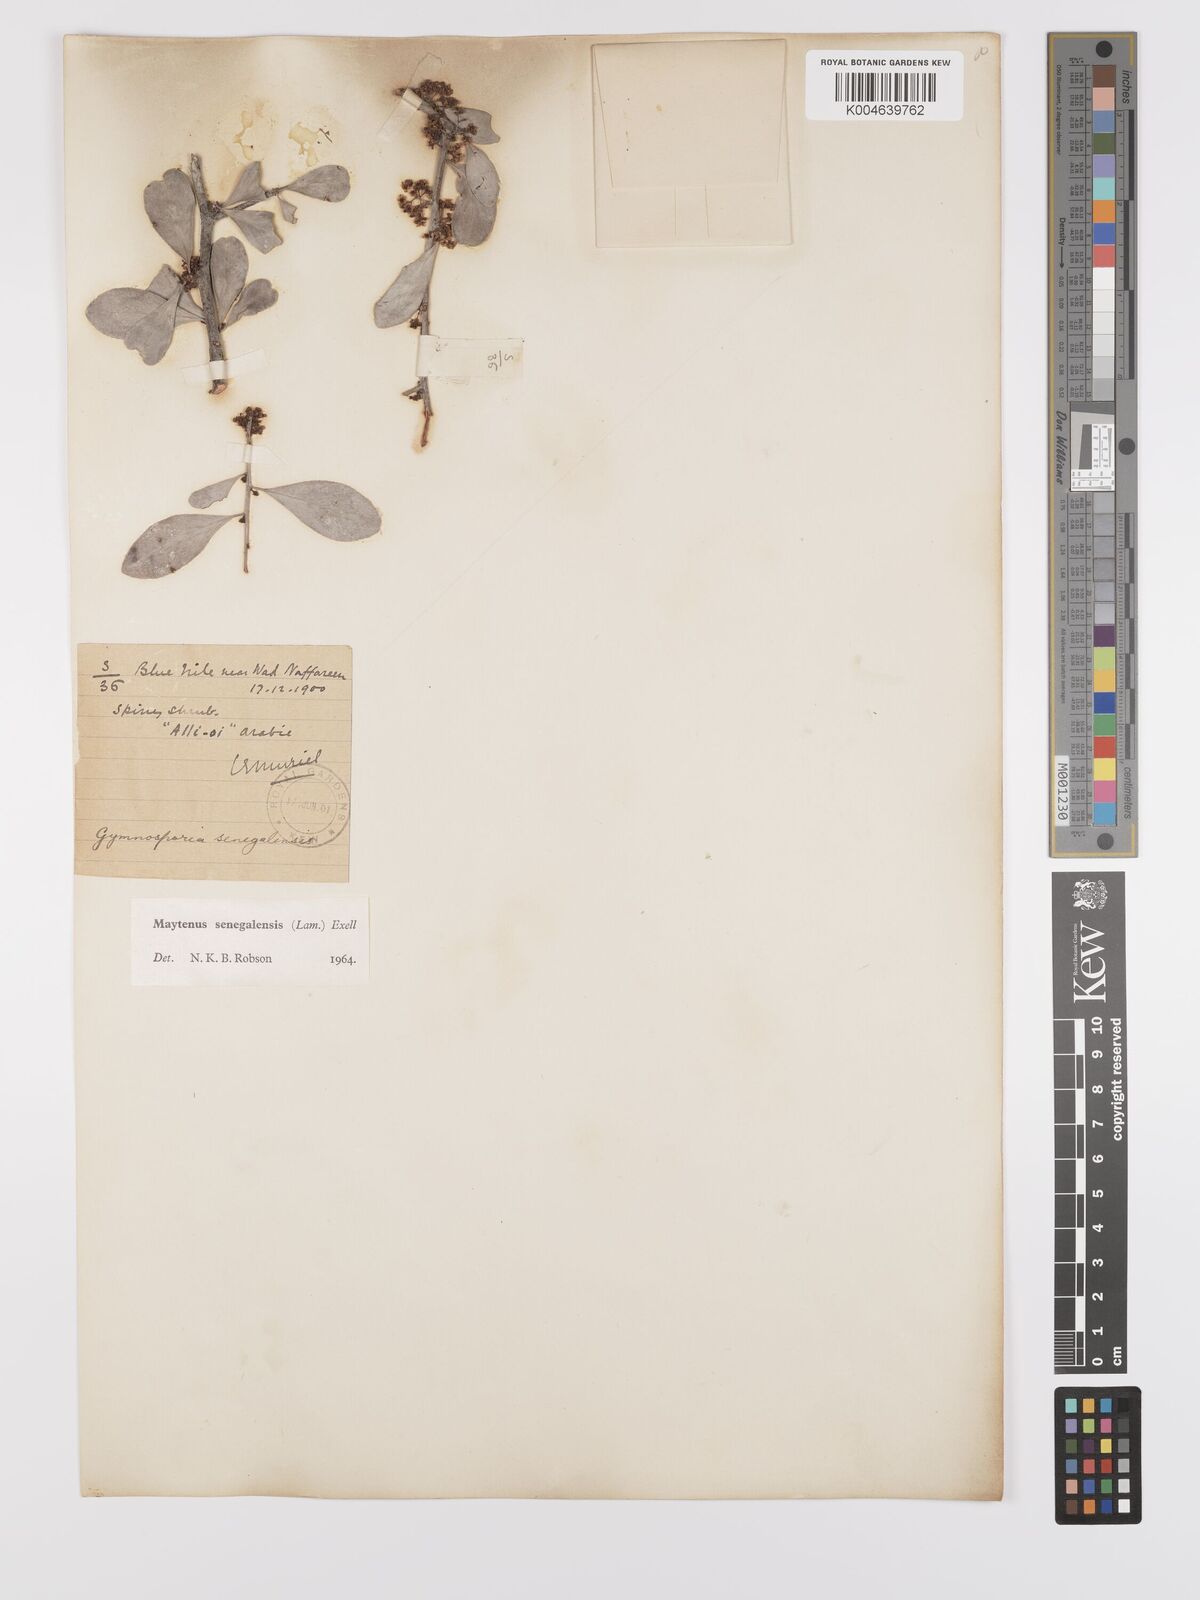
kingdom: Plantae
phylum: Tracheophyta
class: Magnoliopsida
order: Celastrales
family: Celastraceae
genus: Gymnosporia
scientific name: Gymnosporia senegalensis
